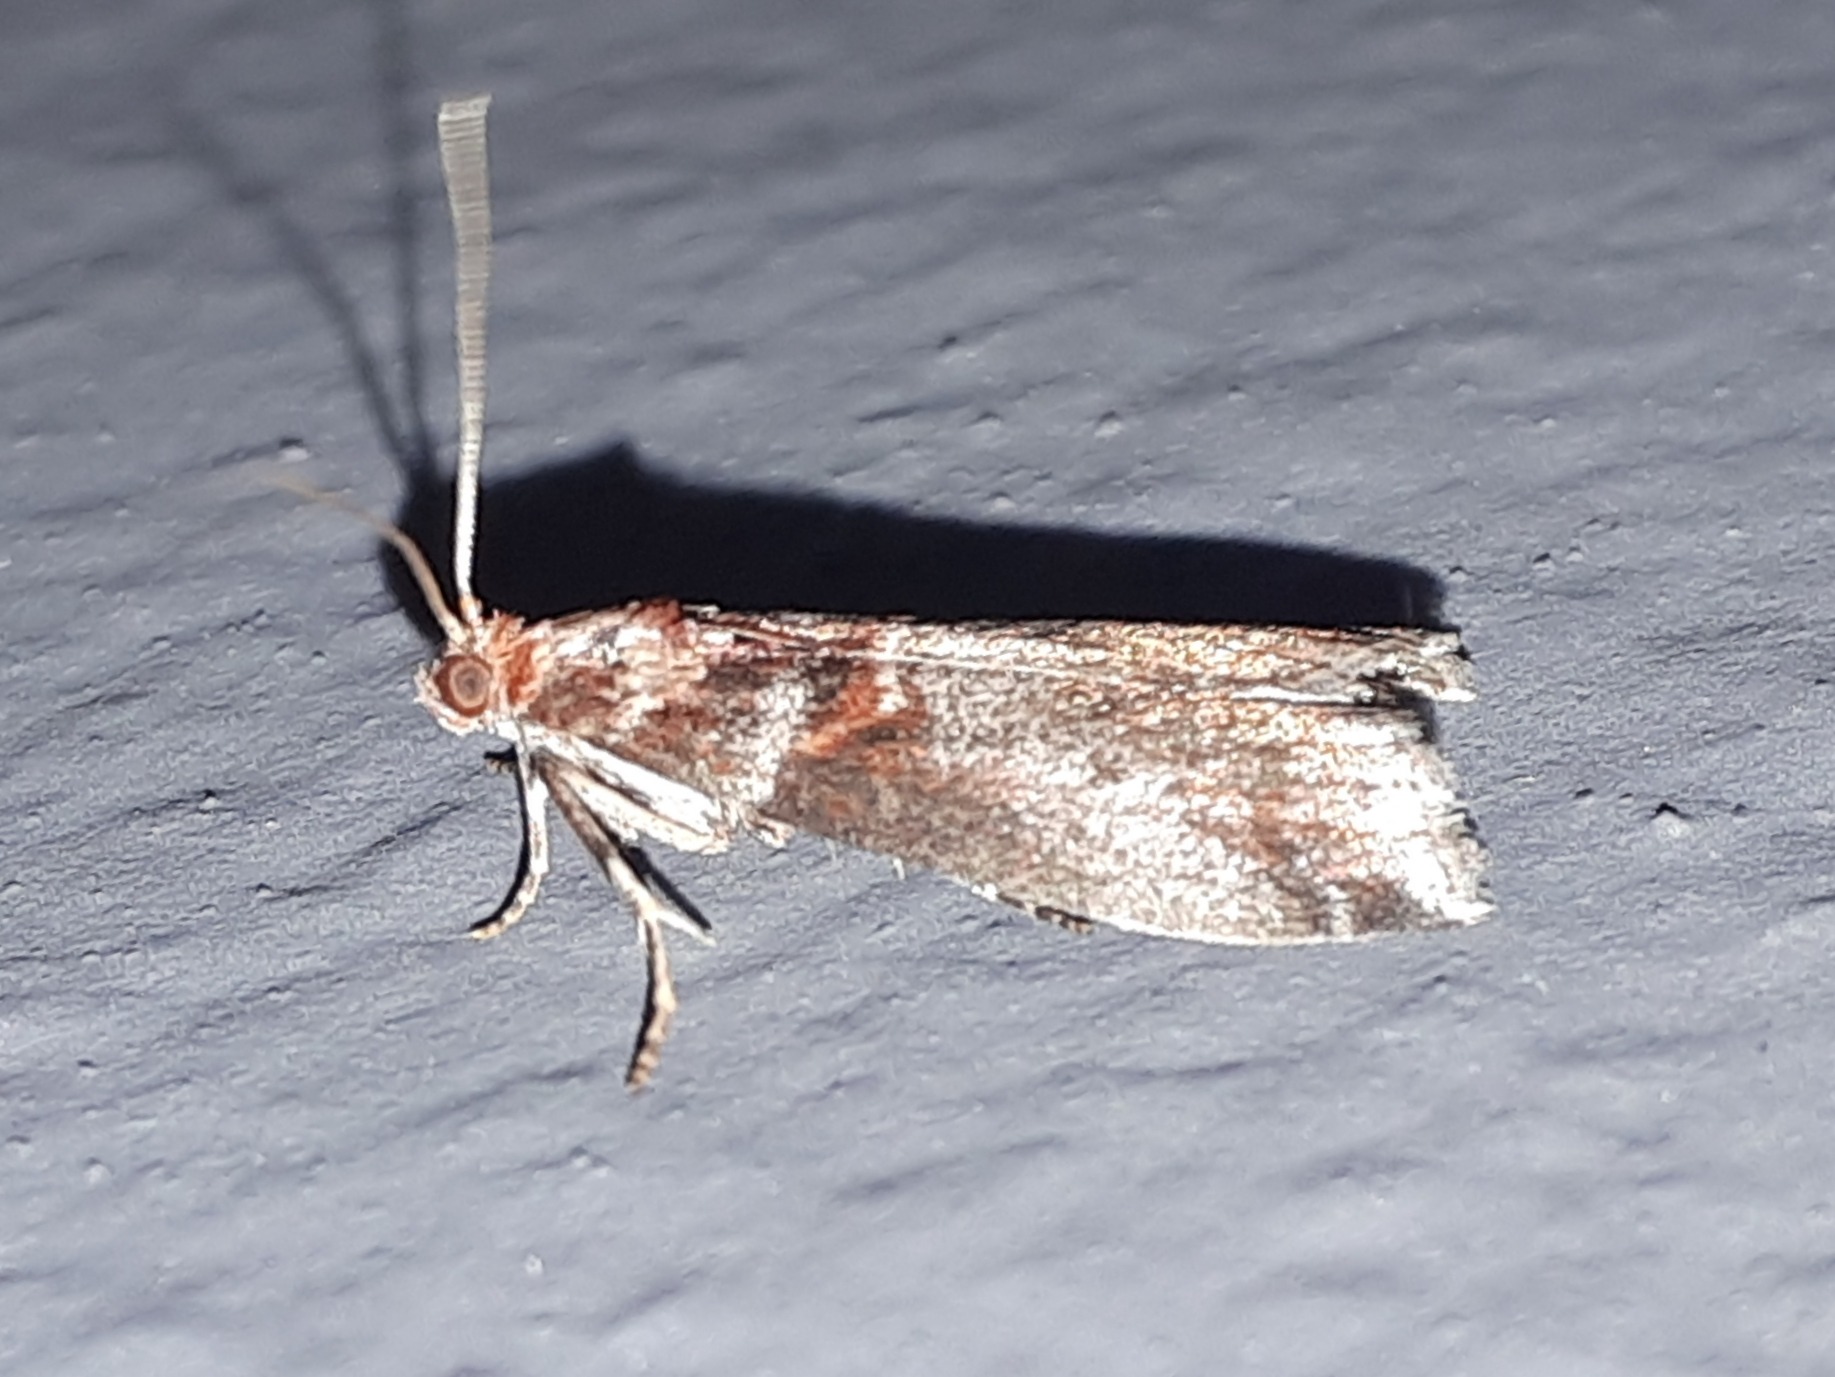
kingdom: Animalia
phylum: Arthropoda
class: Insecta
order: Lepidoptera
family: Pyralidae
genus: Acrobasis
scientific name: Acrobasis advenella
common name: Rønnehalvmøl
